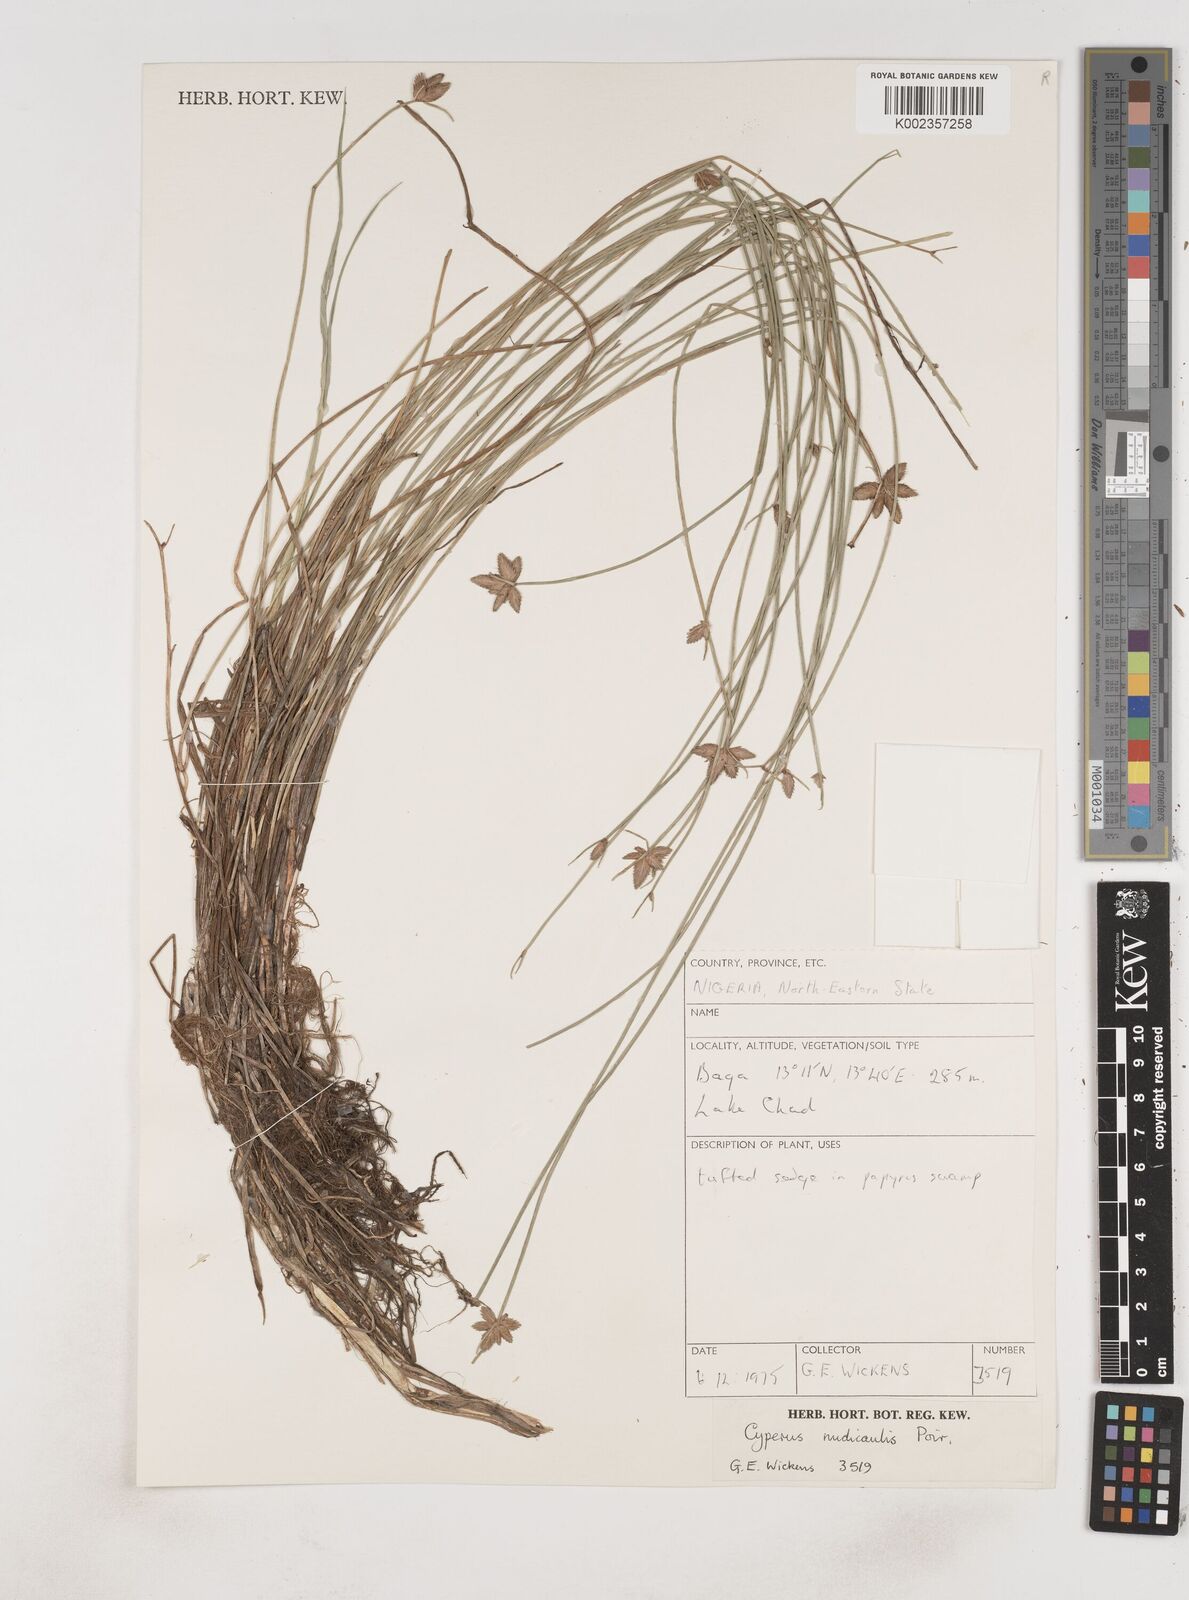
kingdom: Plantae
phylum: Tracheophyta
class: Liliopsida
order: Poales
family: Cyperaceae
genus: Cyperus
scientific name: Cyperus pectinatus
